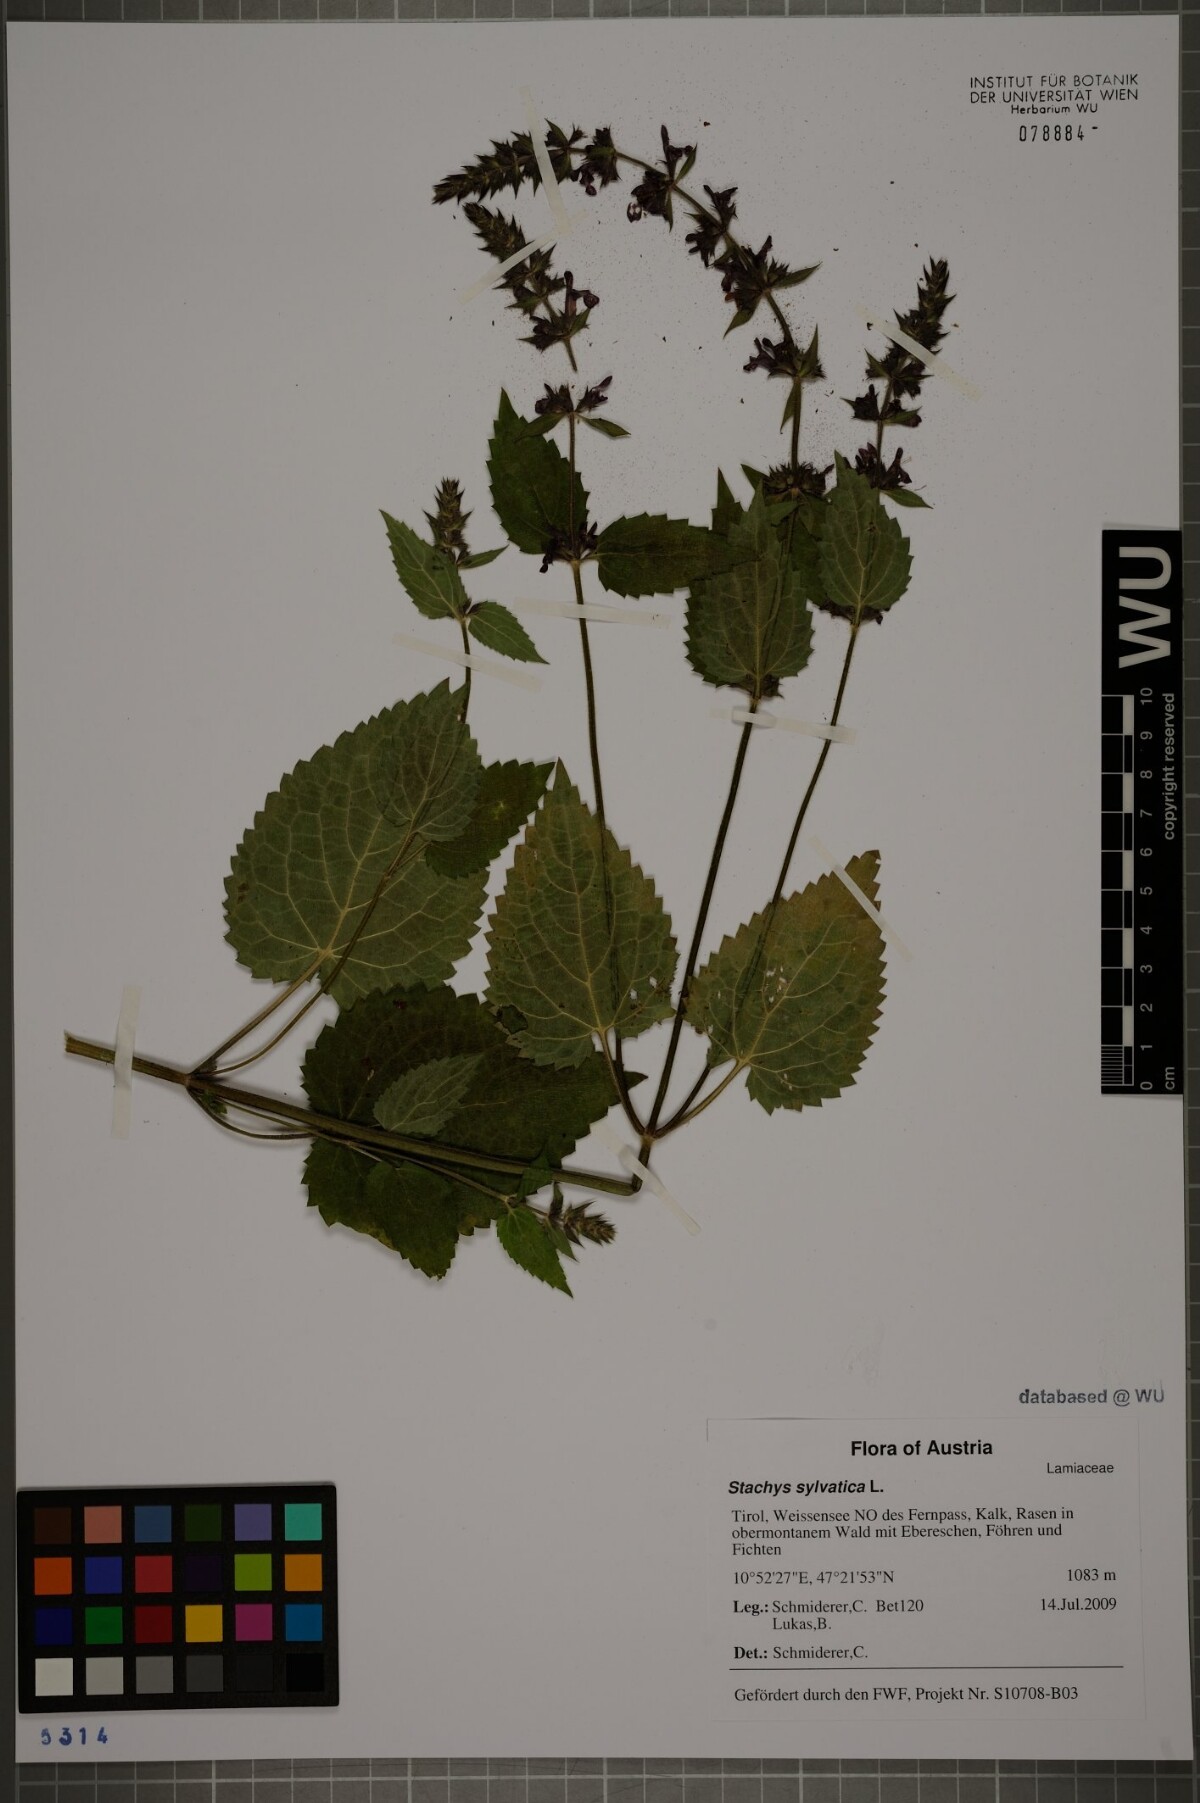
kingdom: Plantae
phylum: Tracheophyta
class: Magnoliopsida
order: Lamiales
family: Lamiaceae
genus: Stachys
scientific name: Stachys sylvatica
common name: Hedge woundwort
